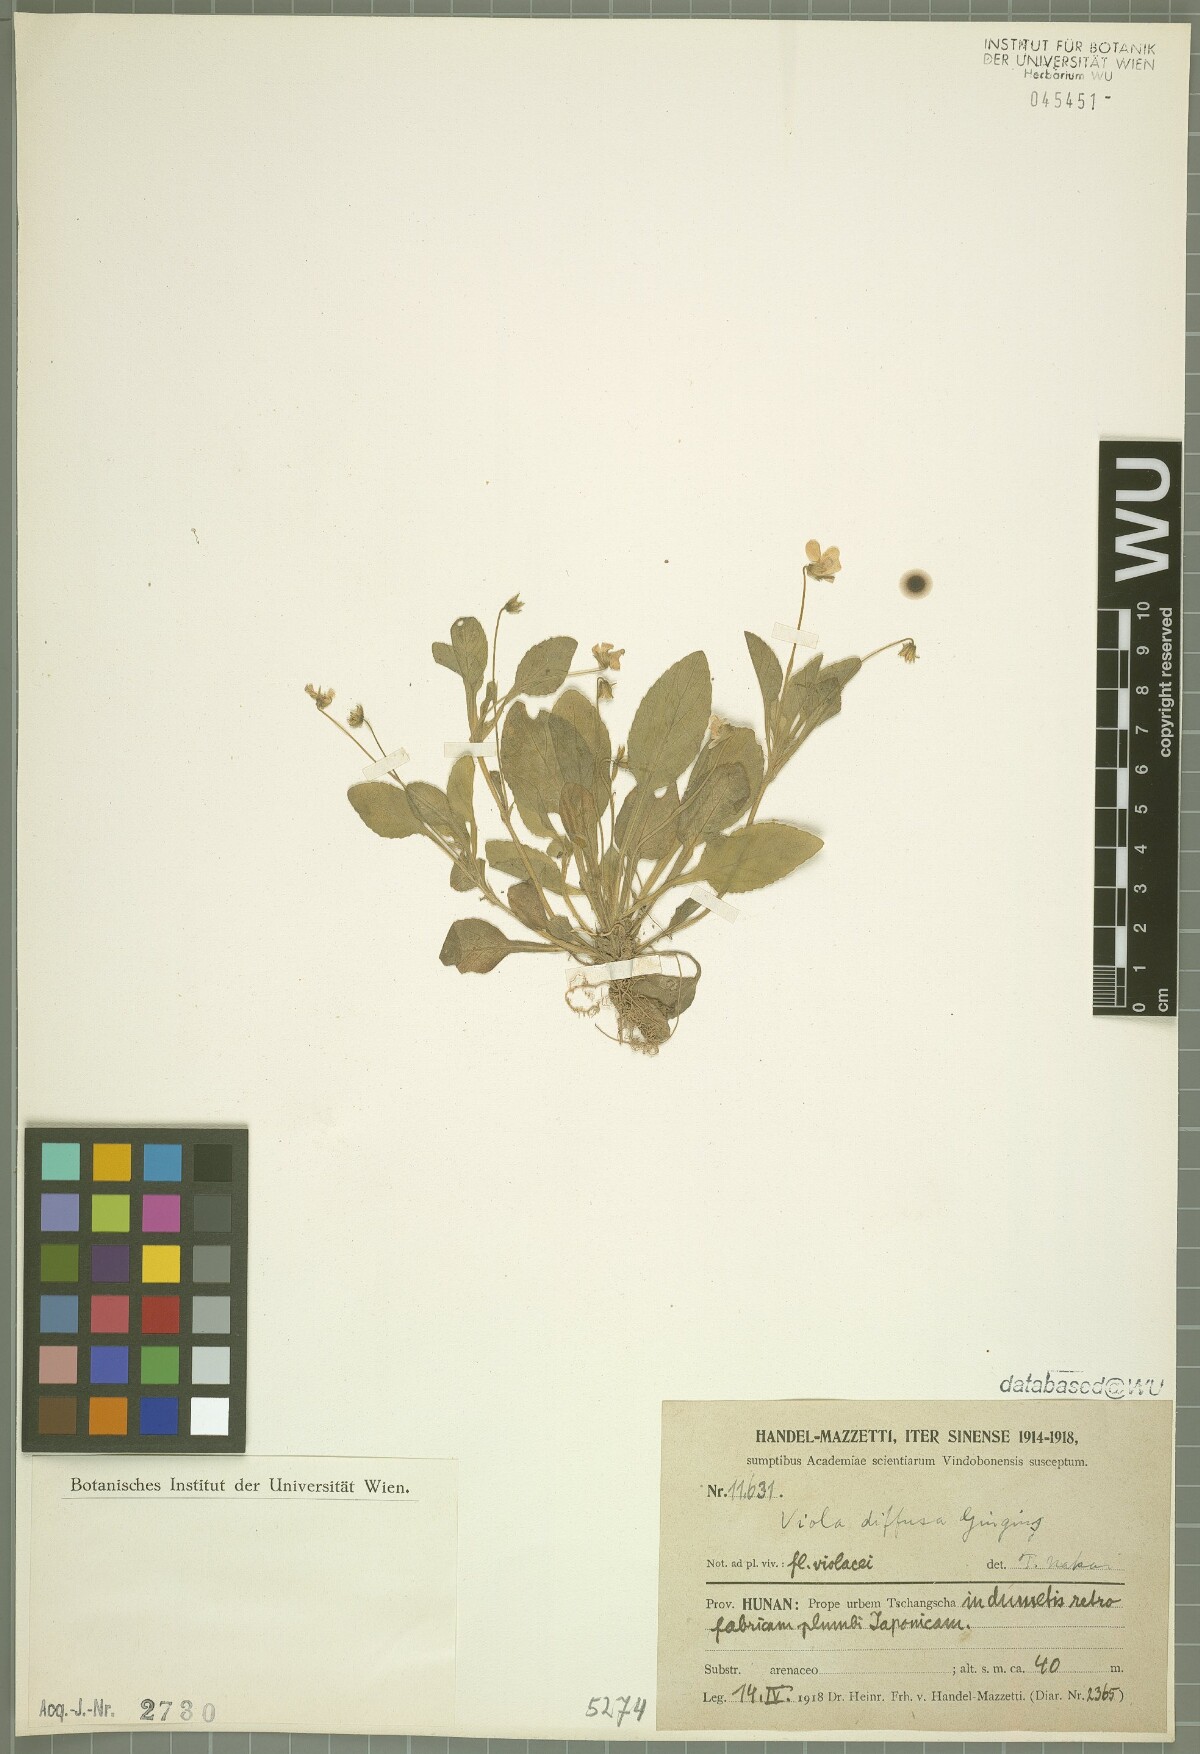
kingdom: Plantae
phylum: Tracheophyta
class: Magnoliopsida
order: Malpighiales
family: Violaceae
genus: Viola
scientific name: Viola diffusa
